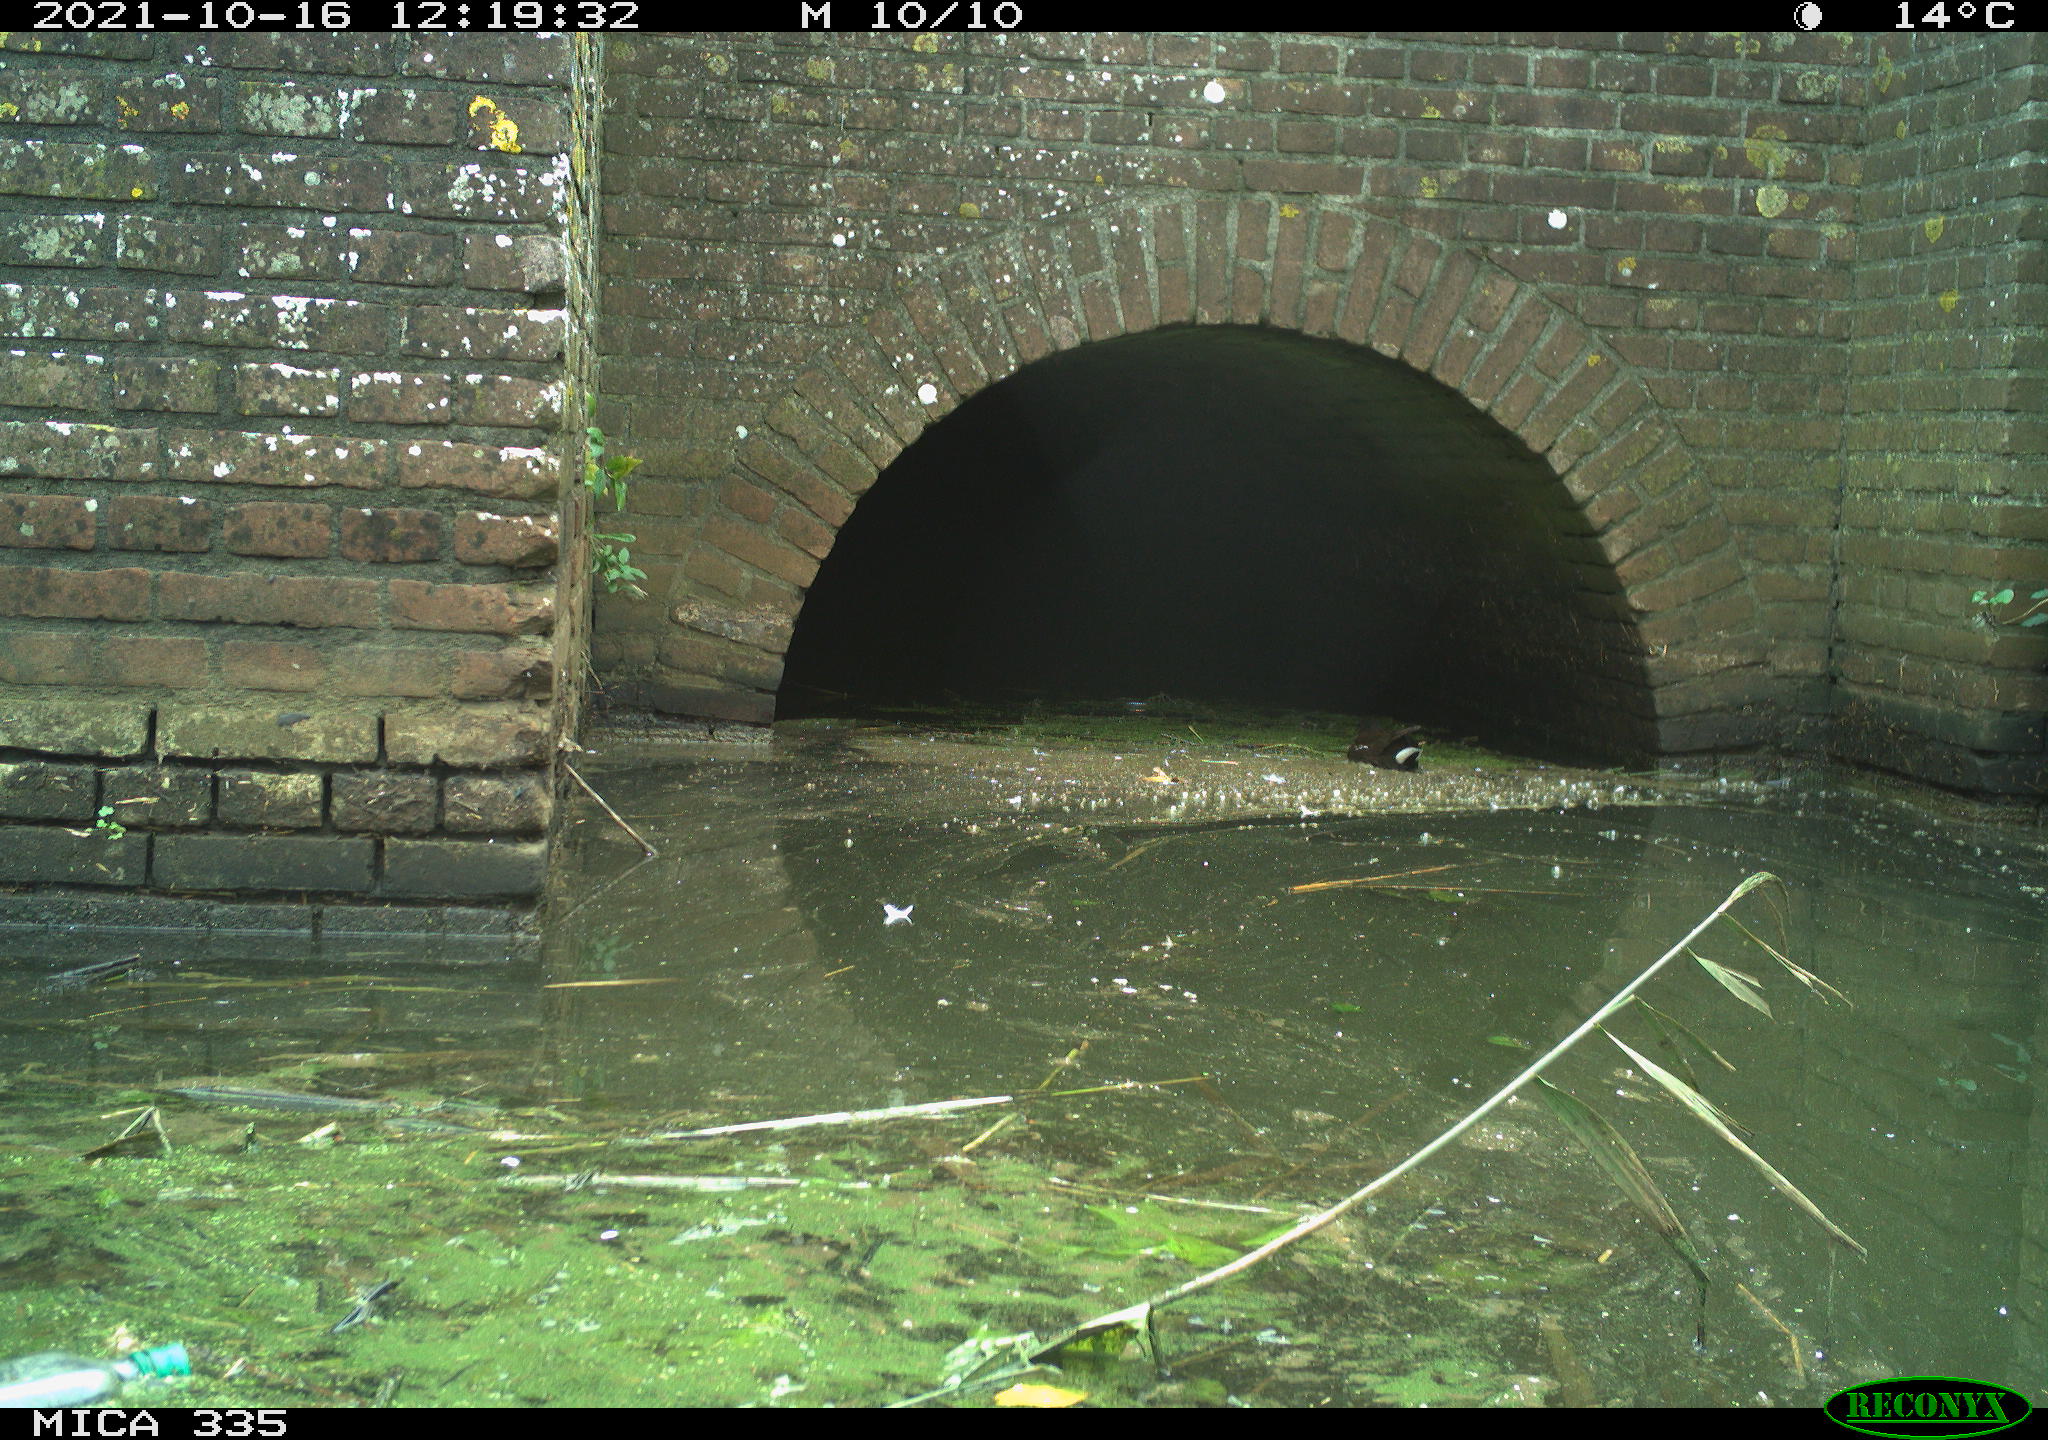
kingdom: Animalia
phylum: Chordata
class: Aves
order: Gruiformes
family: Rallidae
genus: Gallinula
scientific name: Gallinula chloropus
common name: Common moorhen
